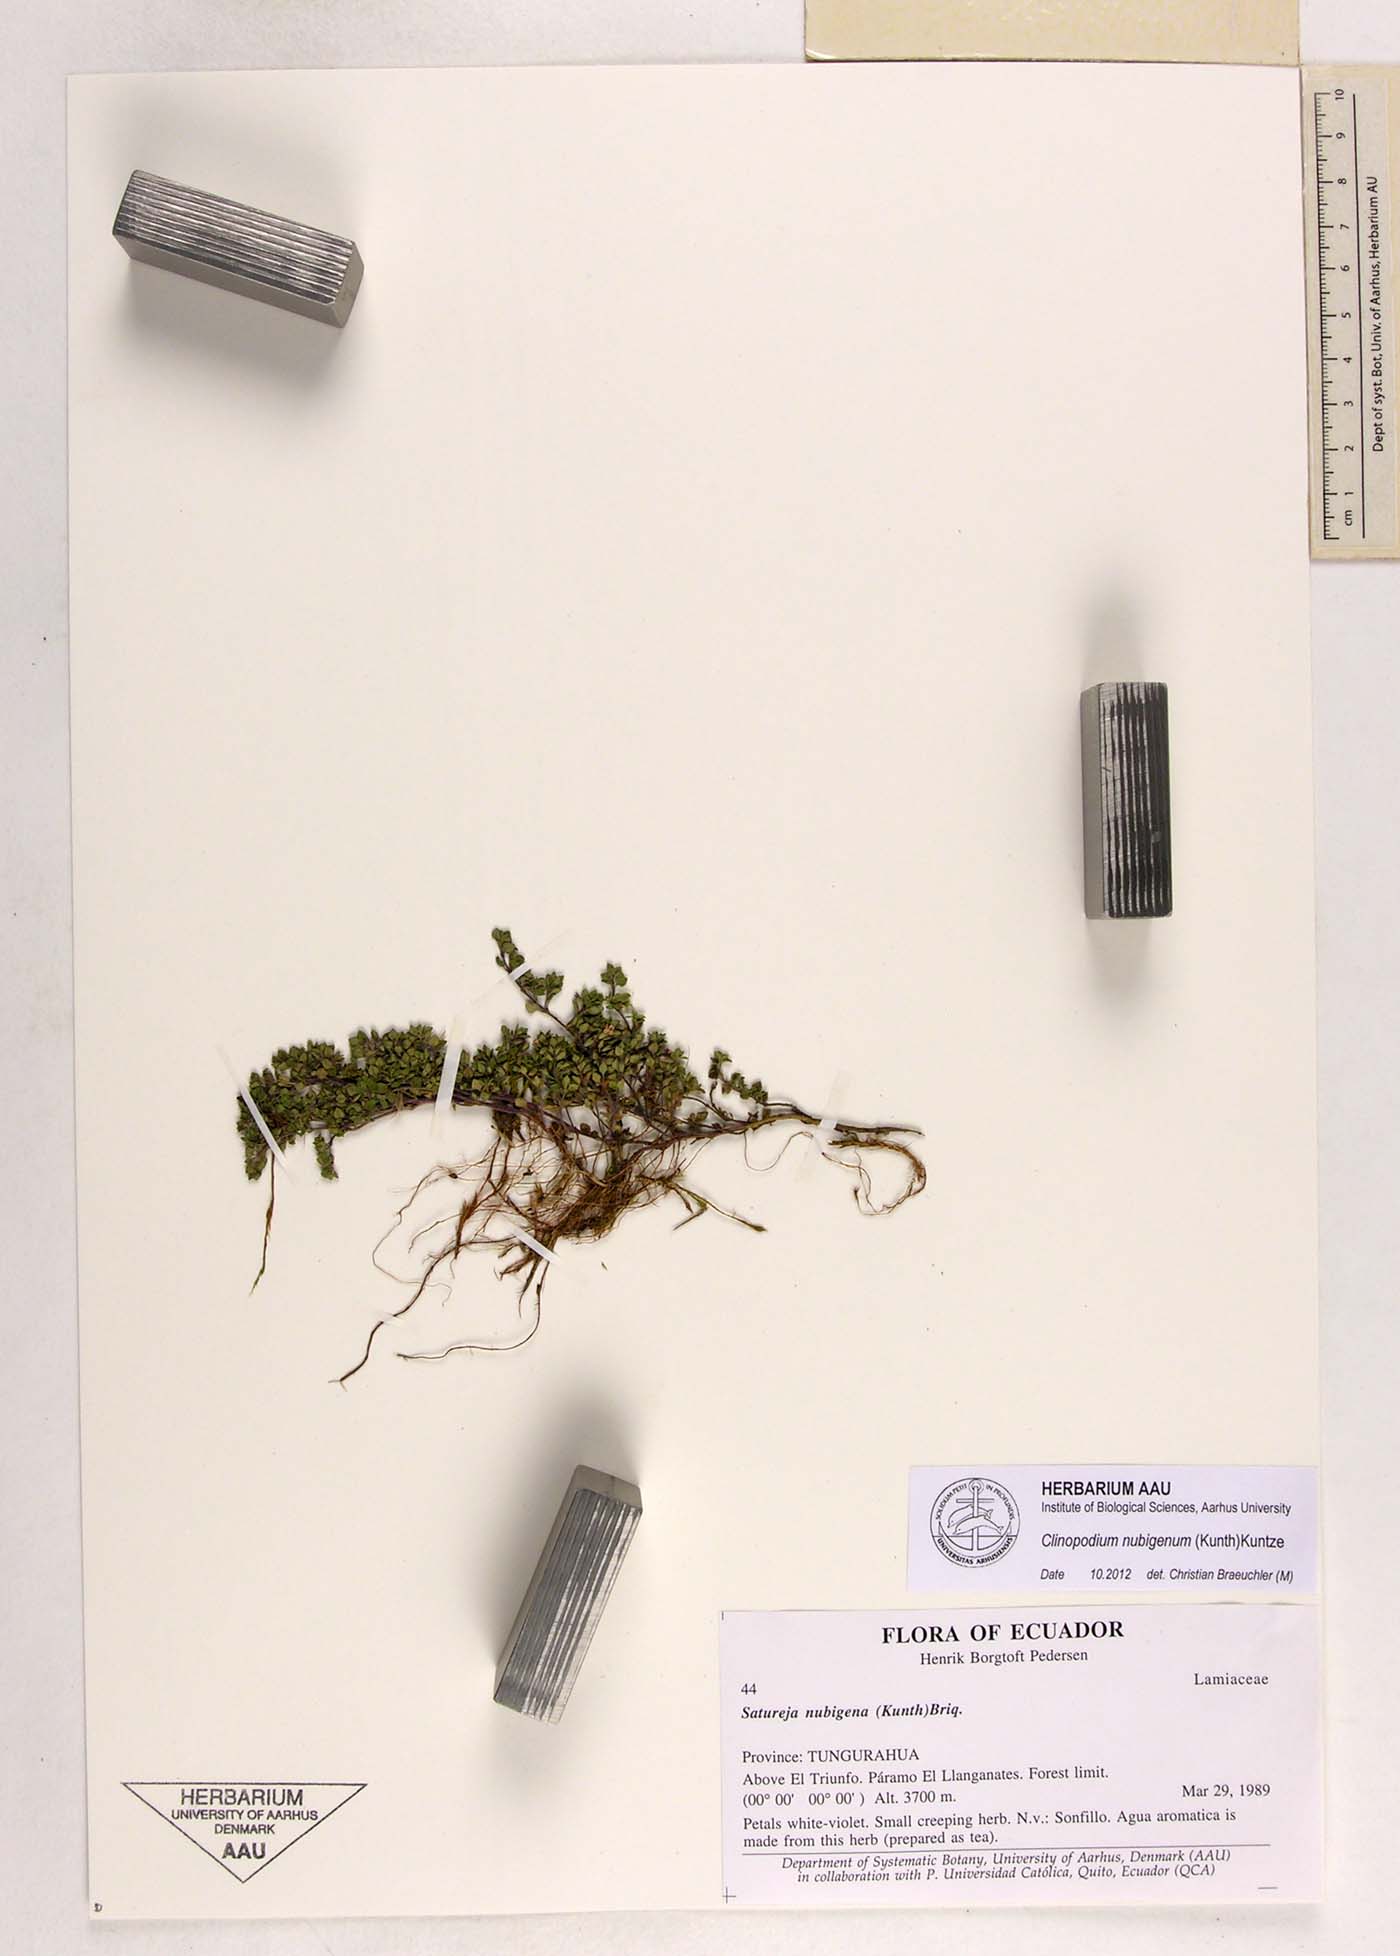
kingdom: Plantae
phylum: Tracheophyta
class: Magnoliopsida
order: Lamiales
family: Lamiaceae
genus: Clinopodium
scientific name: Clinopodium nubigenum
